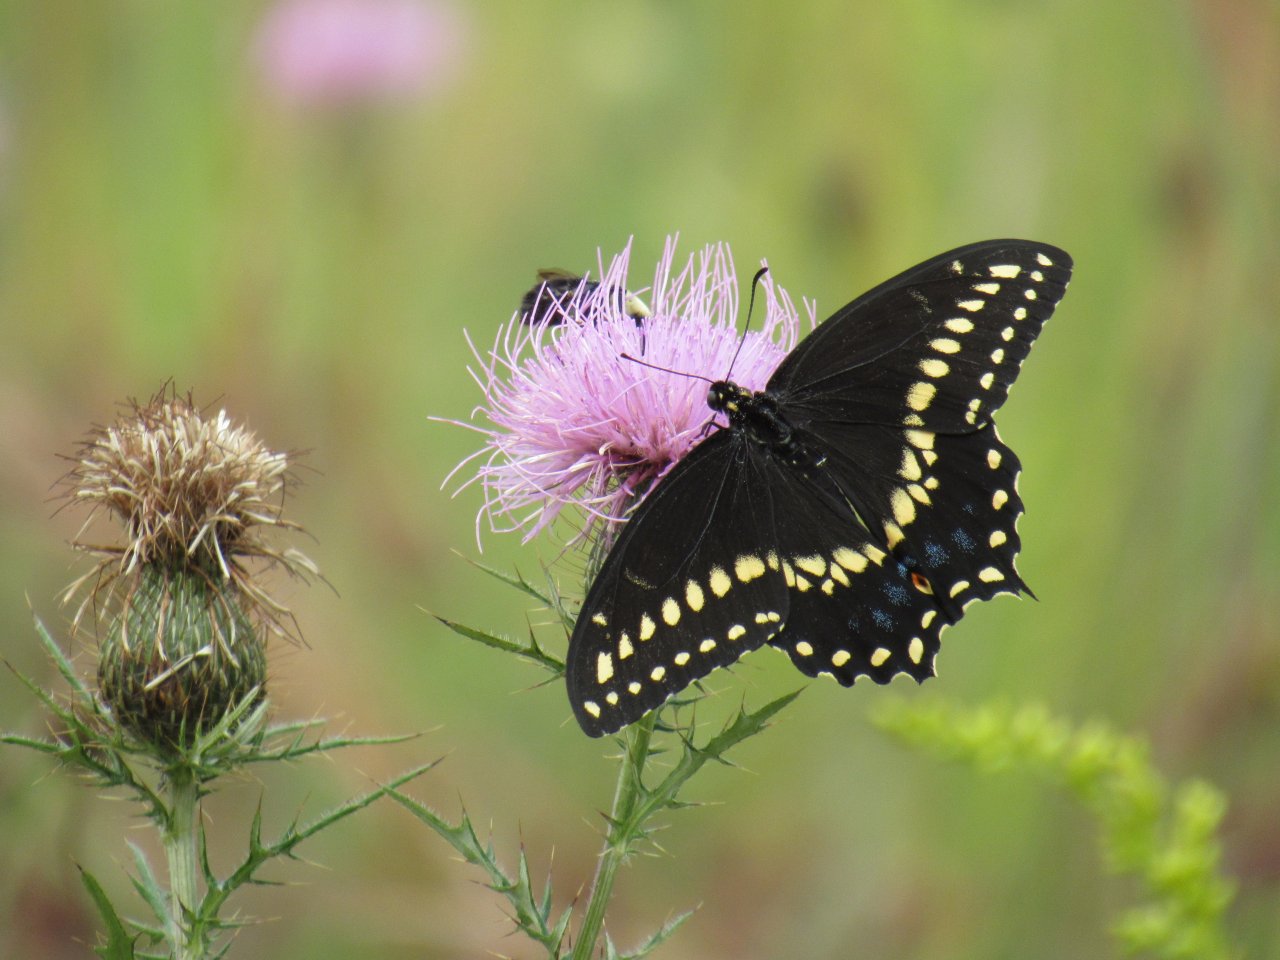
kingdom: Animalia
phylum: Arthropoda
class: Insecta
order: Lepidoptera
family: Papilionidae
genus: Papilio
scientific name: Papilio polyxenes
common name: Black Swallowtail
